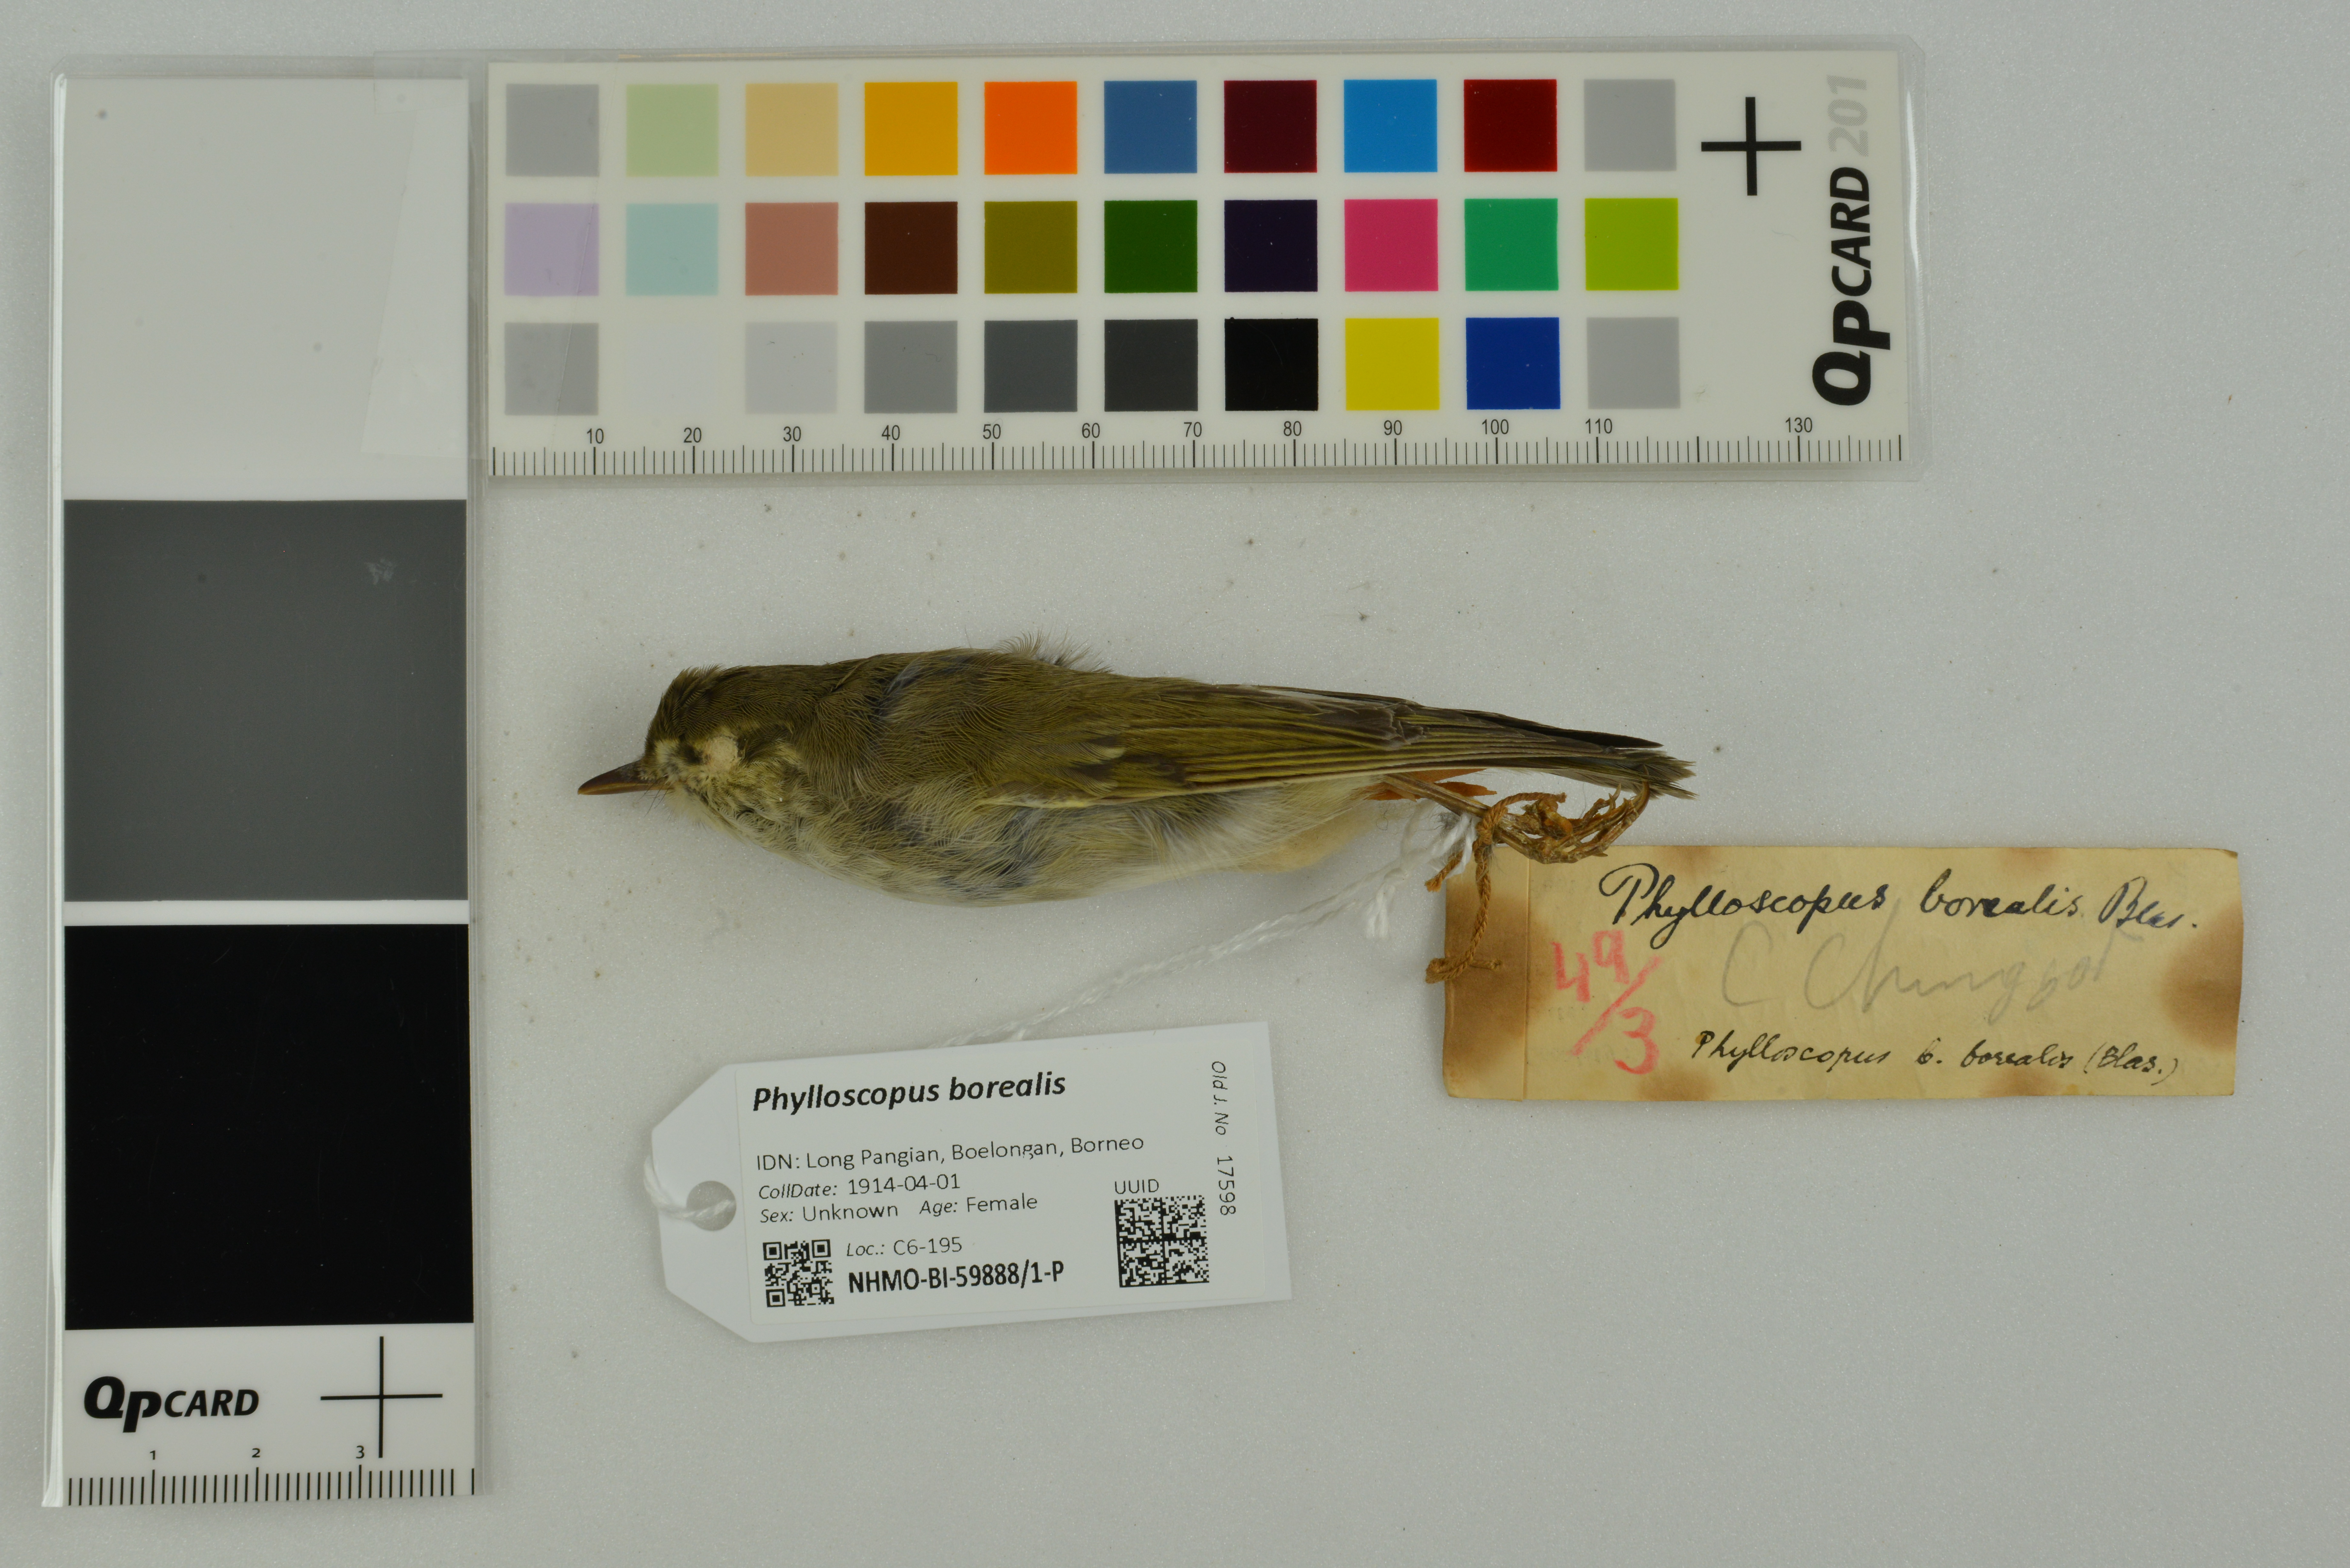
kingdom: Animalia
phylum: Chordata
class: Aves
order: Passeriformes
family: Phylloscopidae
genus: Phylloscopus
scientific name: Phylloscopus borealis
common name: Arctic warbler
